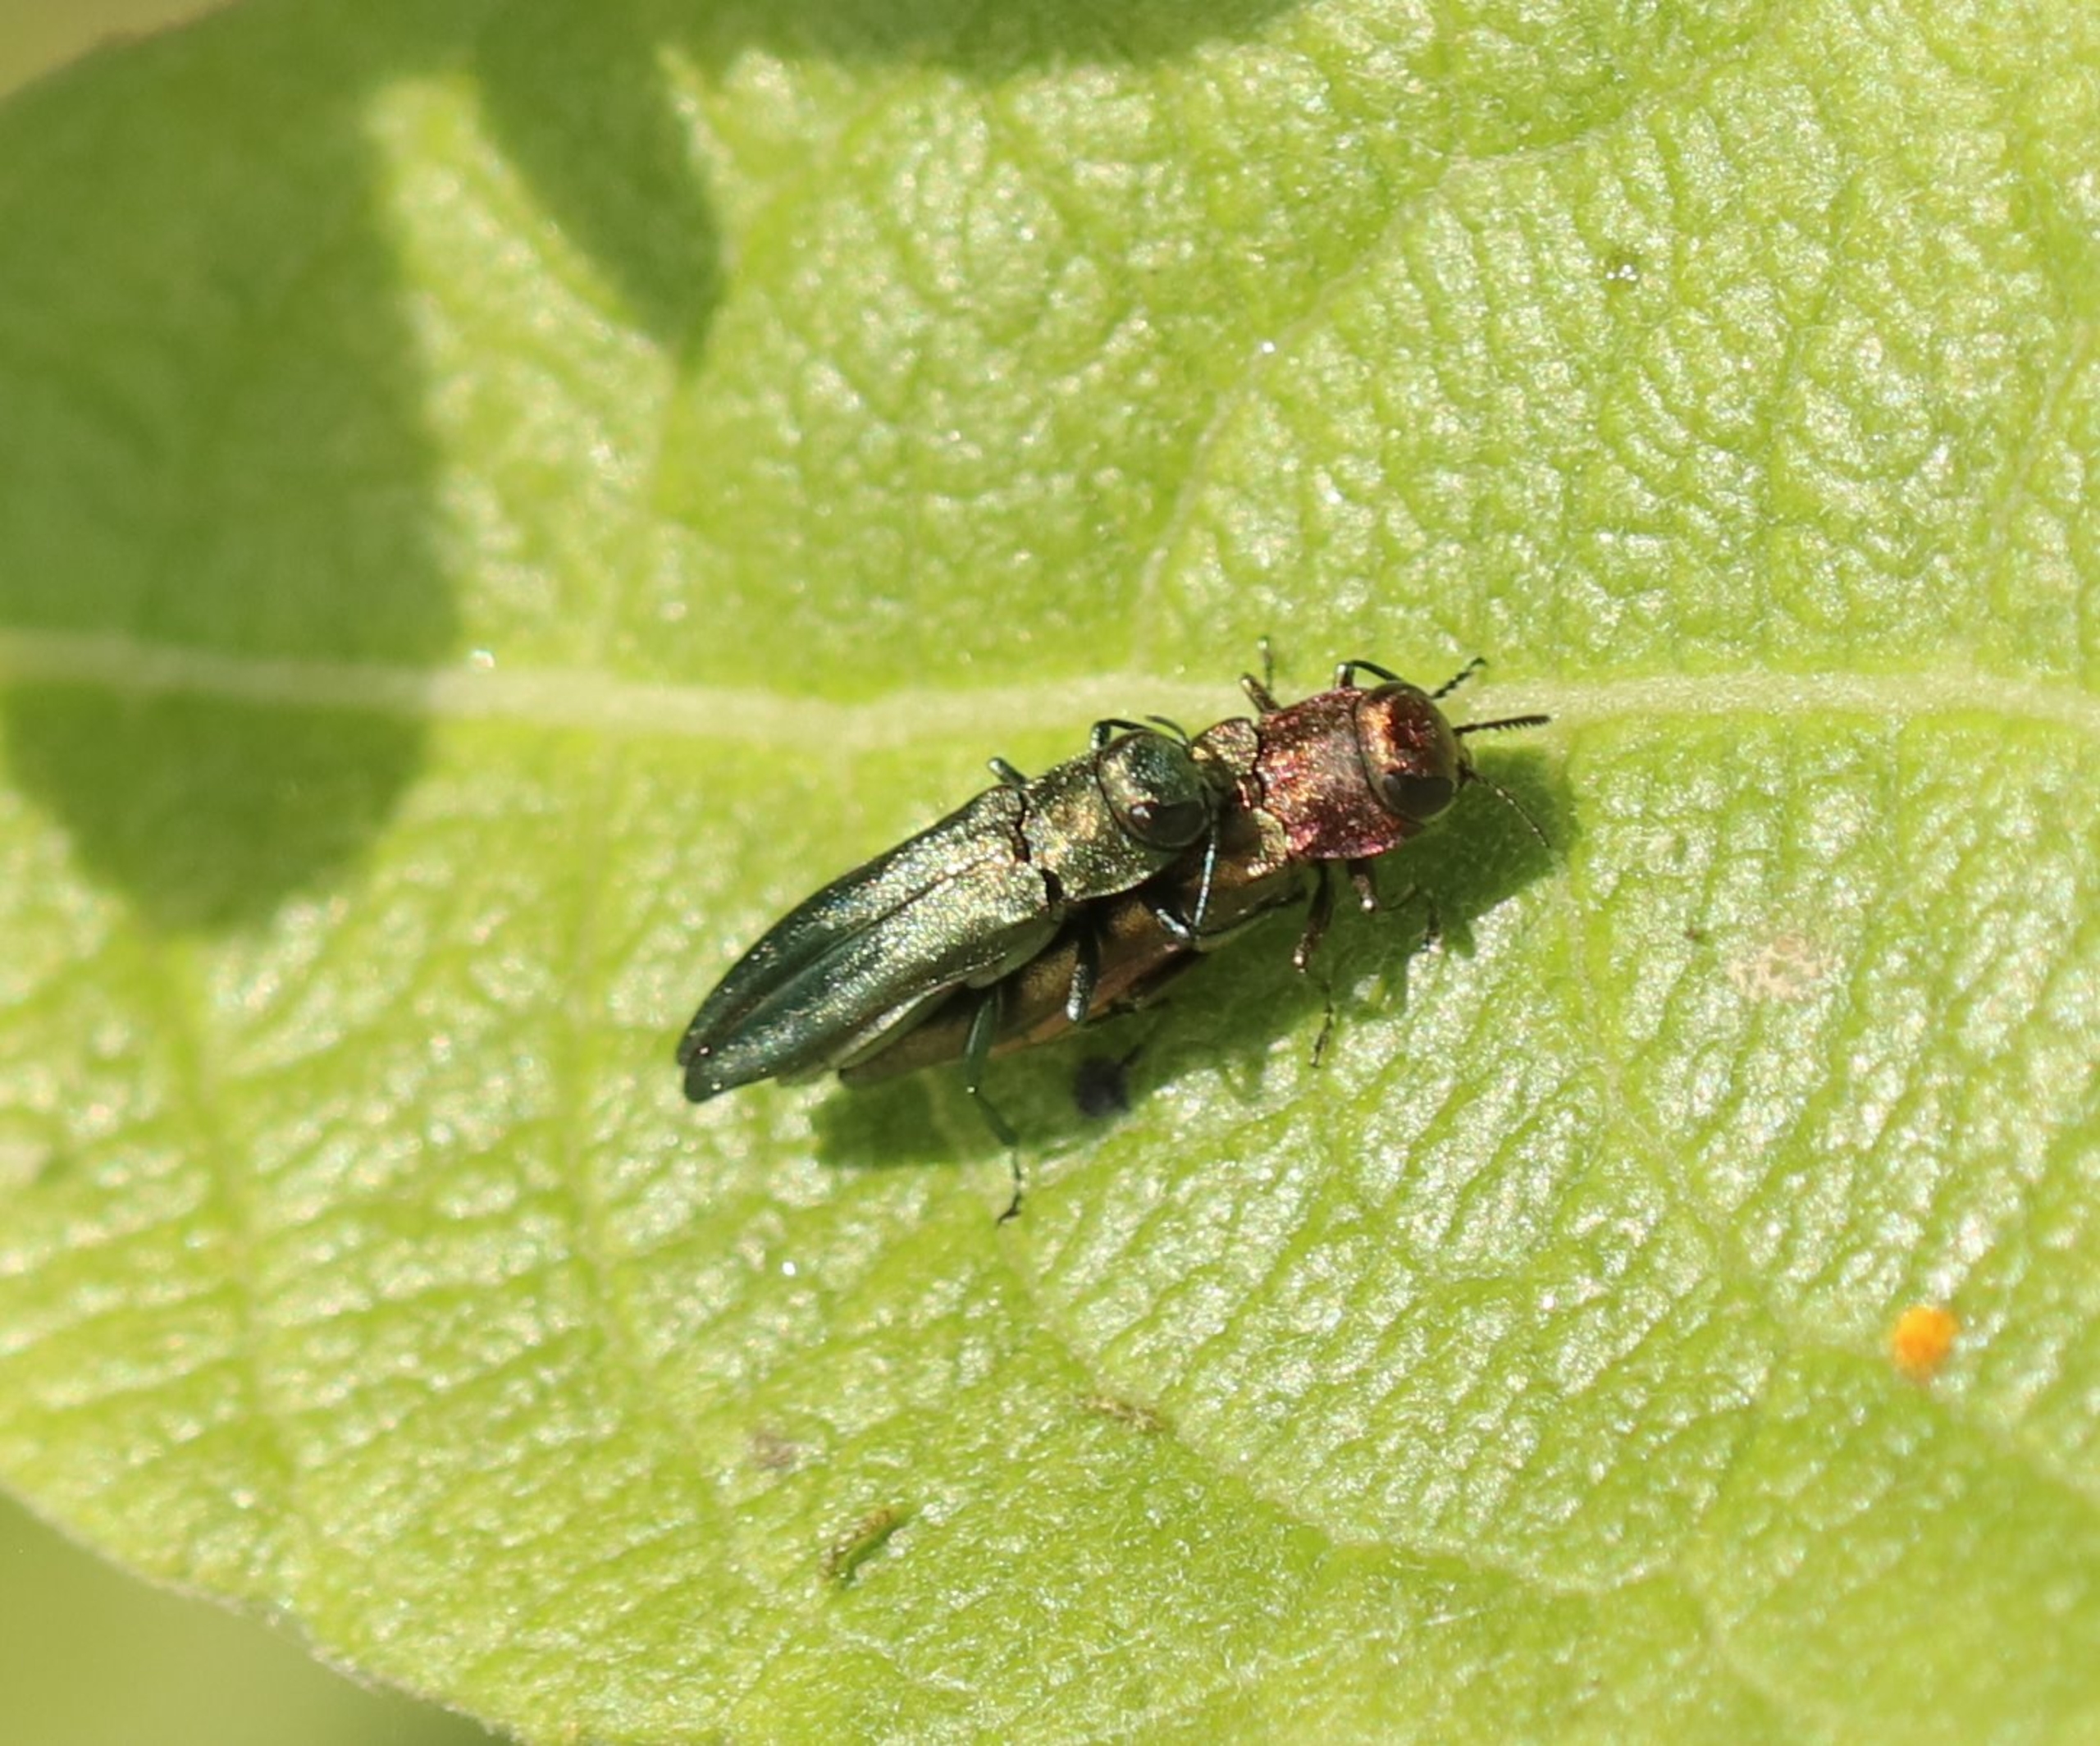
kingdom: Animalia
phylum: Arthropoda
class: Insecta
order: Coleoptera
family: Buprestidae
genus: Agrilus
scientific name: Agrilus viridis
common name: Pilepragtbille
